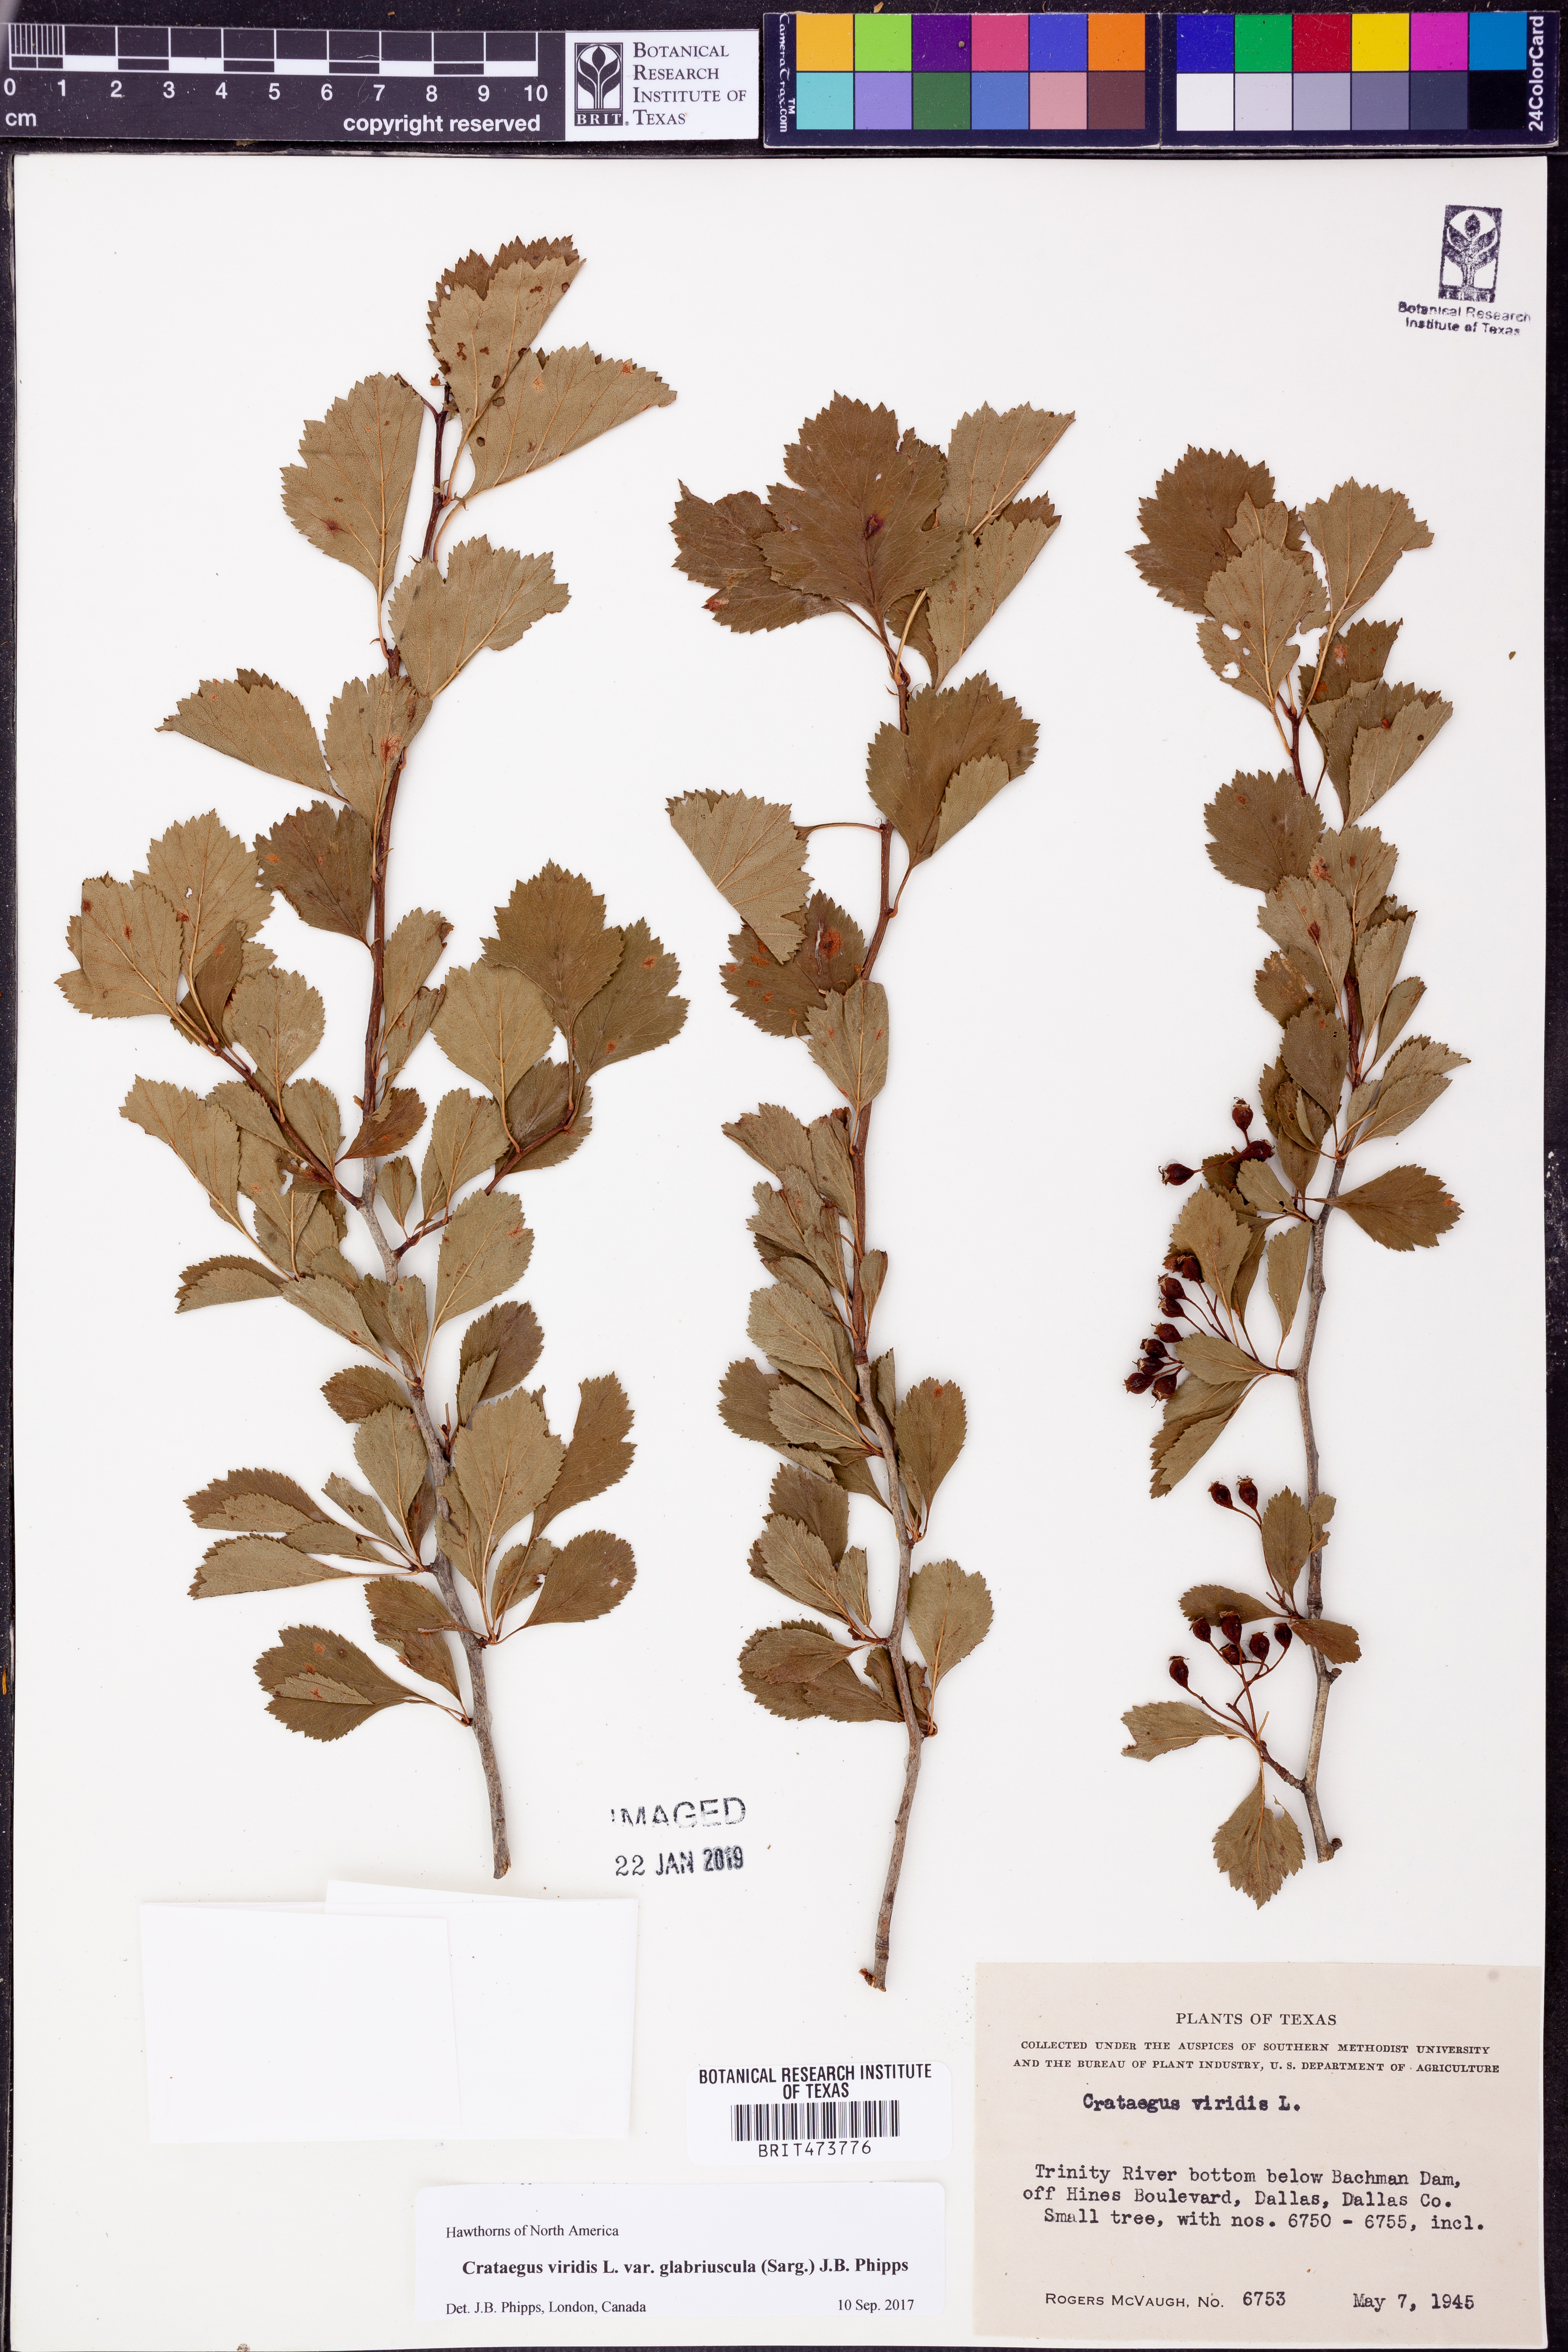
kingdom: Plantae
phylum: Tracheophyta
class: Magnoliopsida
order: Rosales
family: Rosaceae
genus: Crataegus
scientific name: Crataegus viridis
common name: Southernthorn
